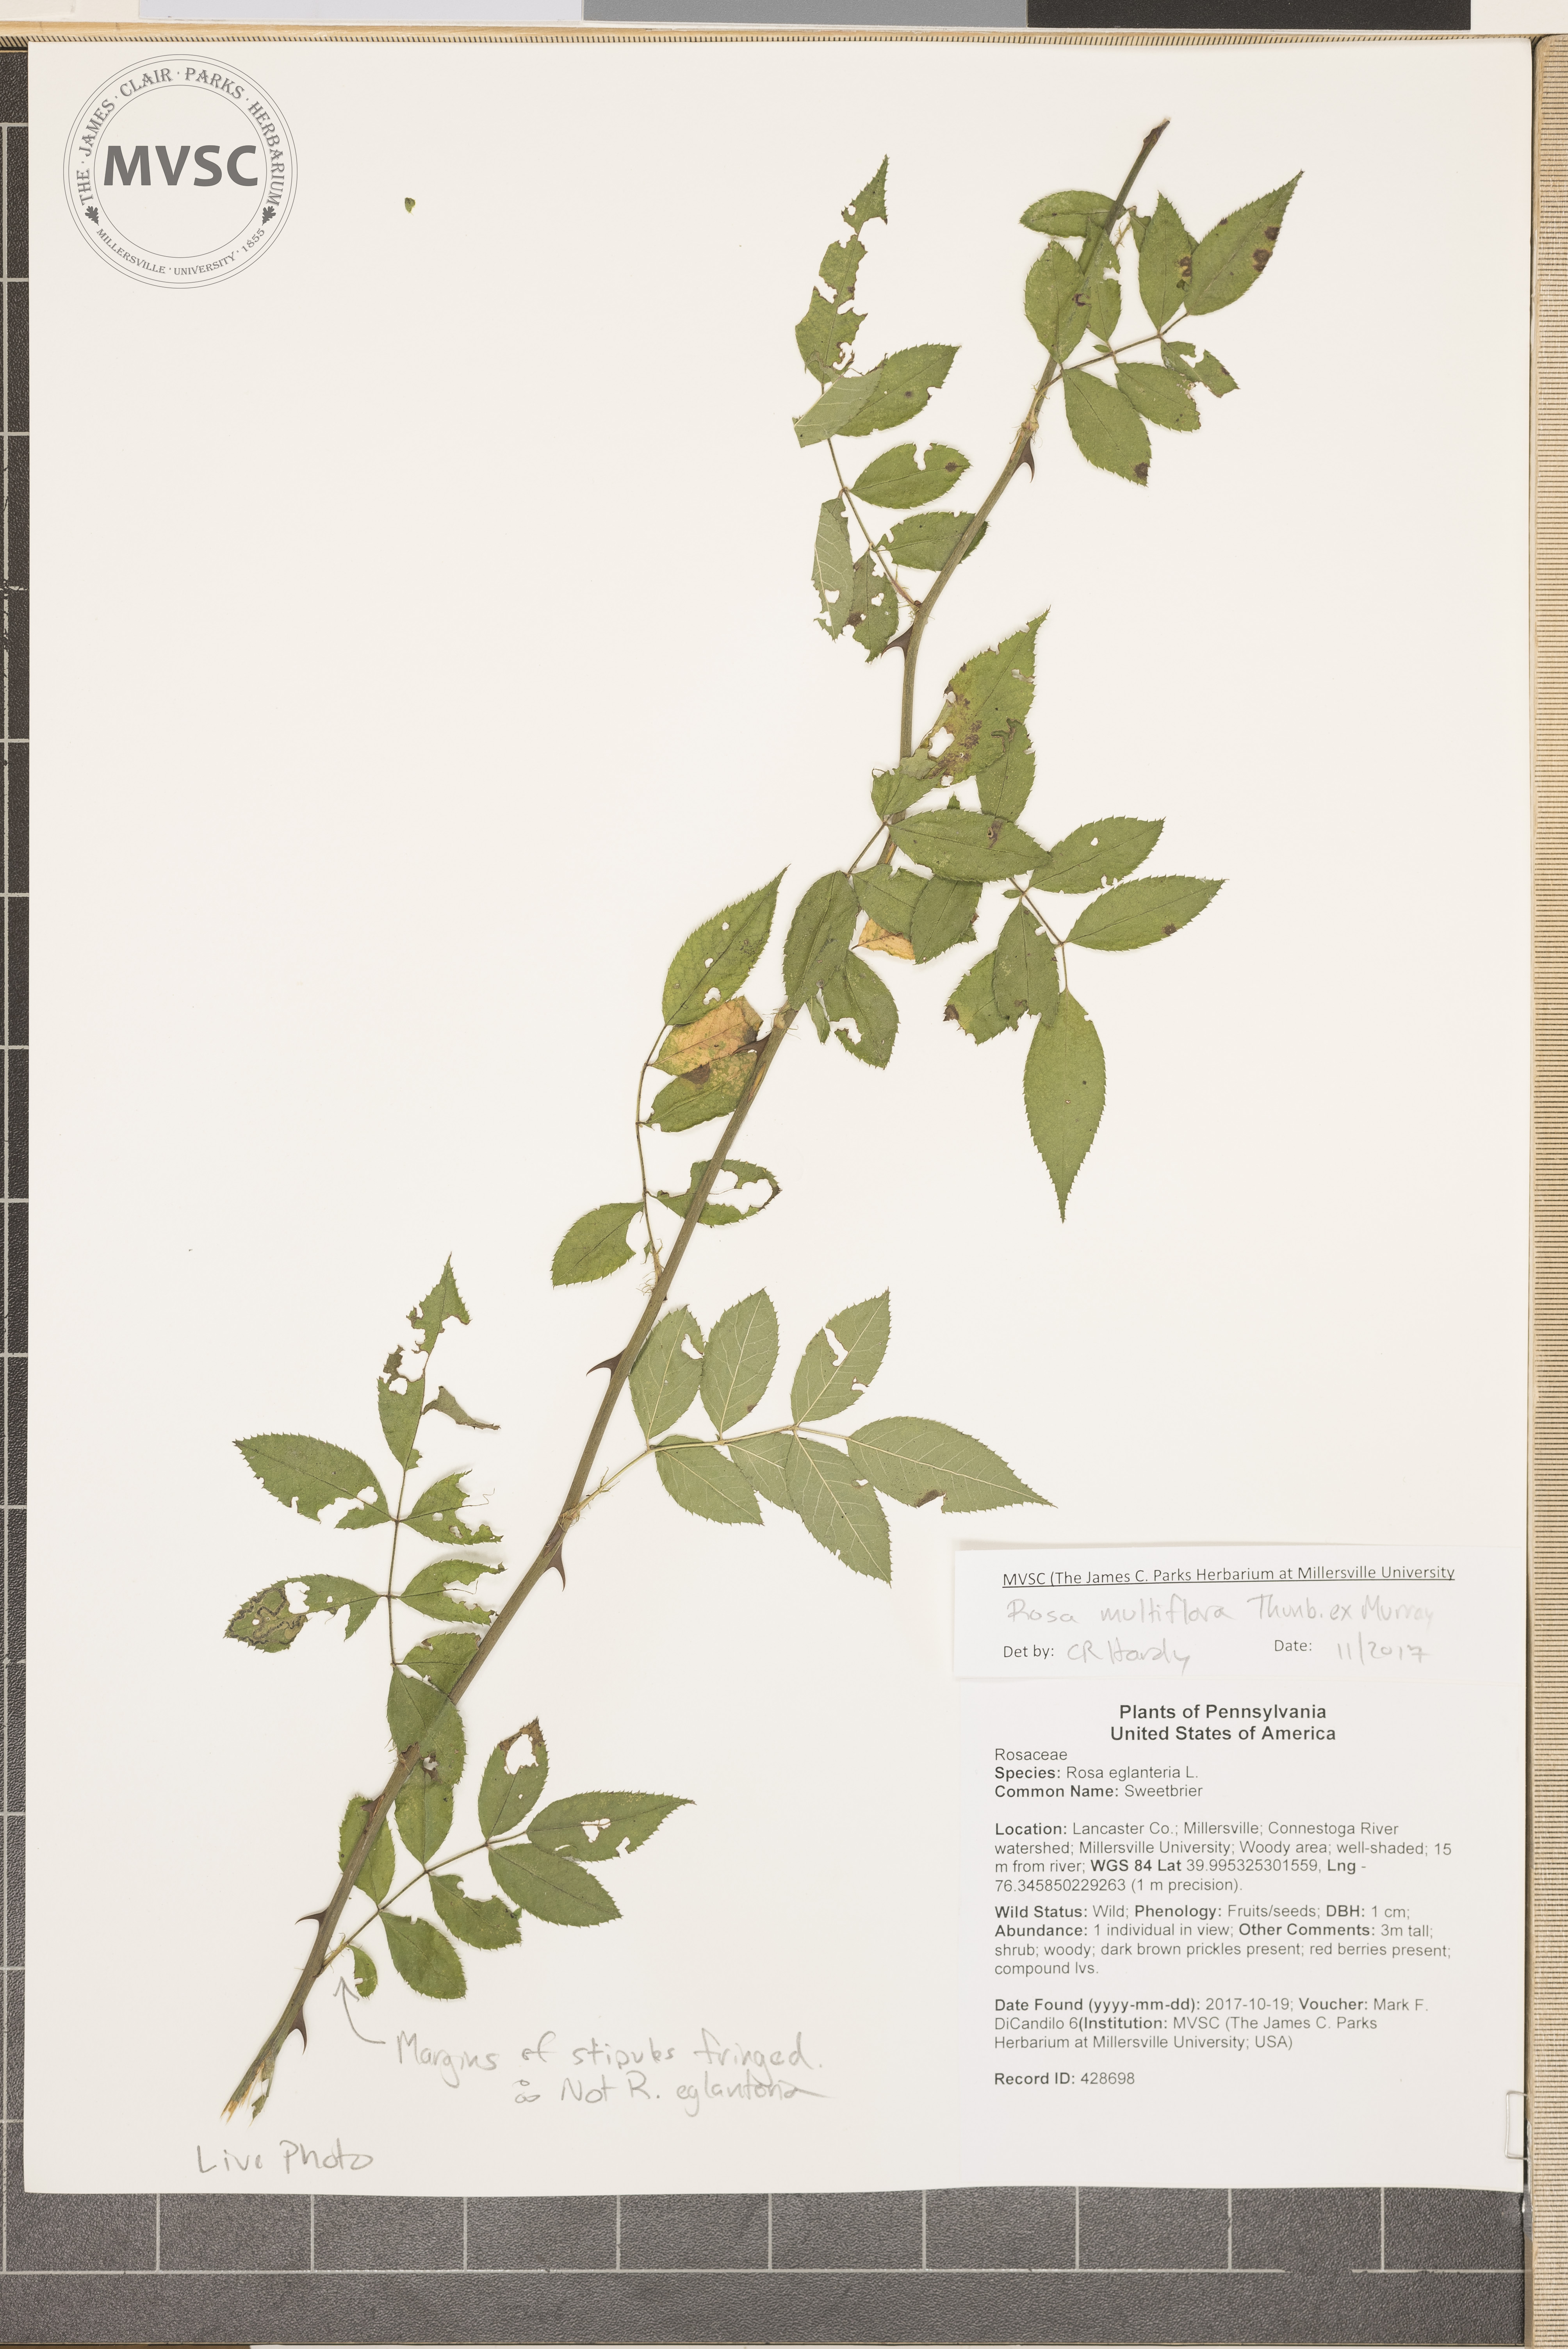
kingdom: Plantae
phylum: Tracheophyta
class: Magnoliopsida
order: Rosales
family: Rosaceae
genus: Rosa
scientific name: Rosa multiflora
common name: Multiflora Rose
